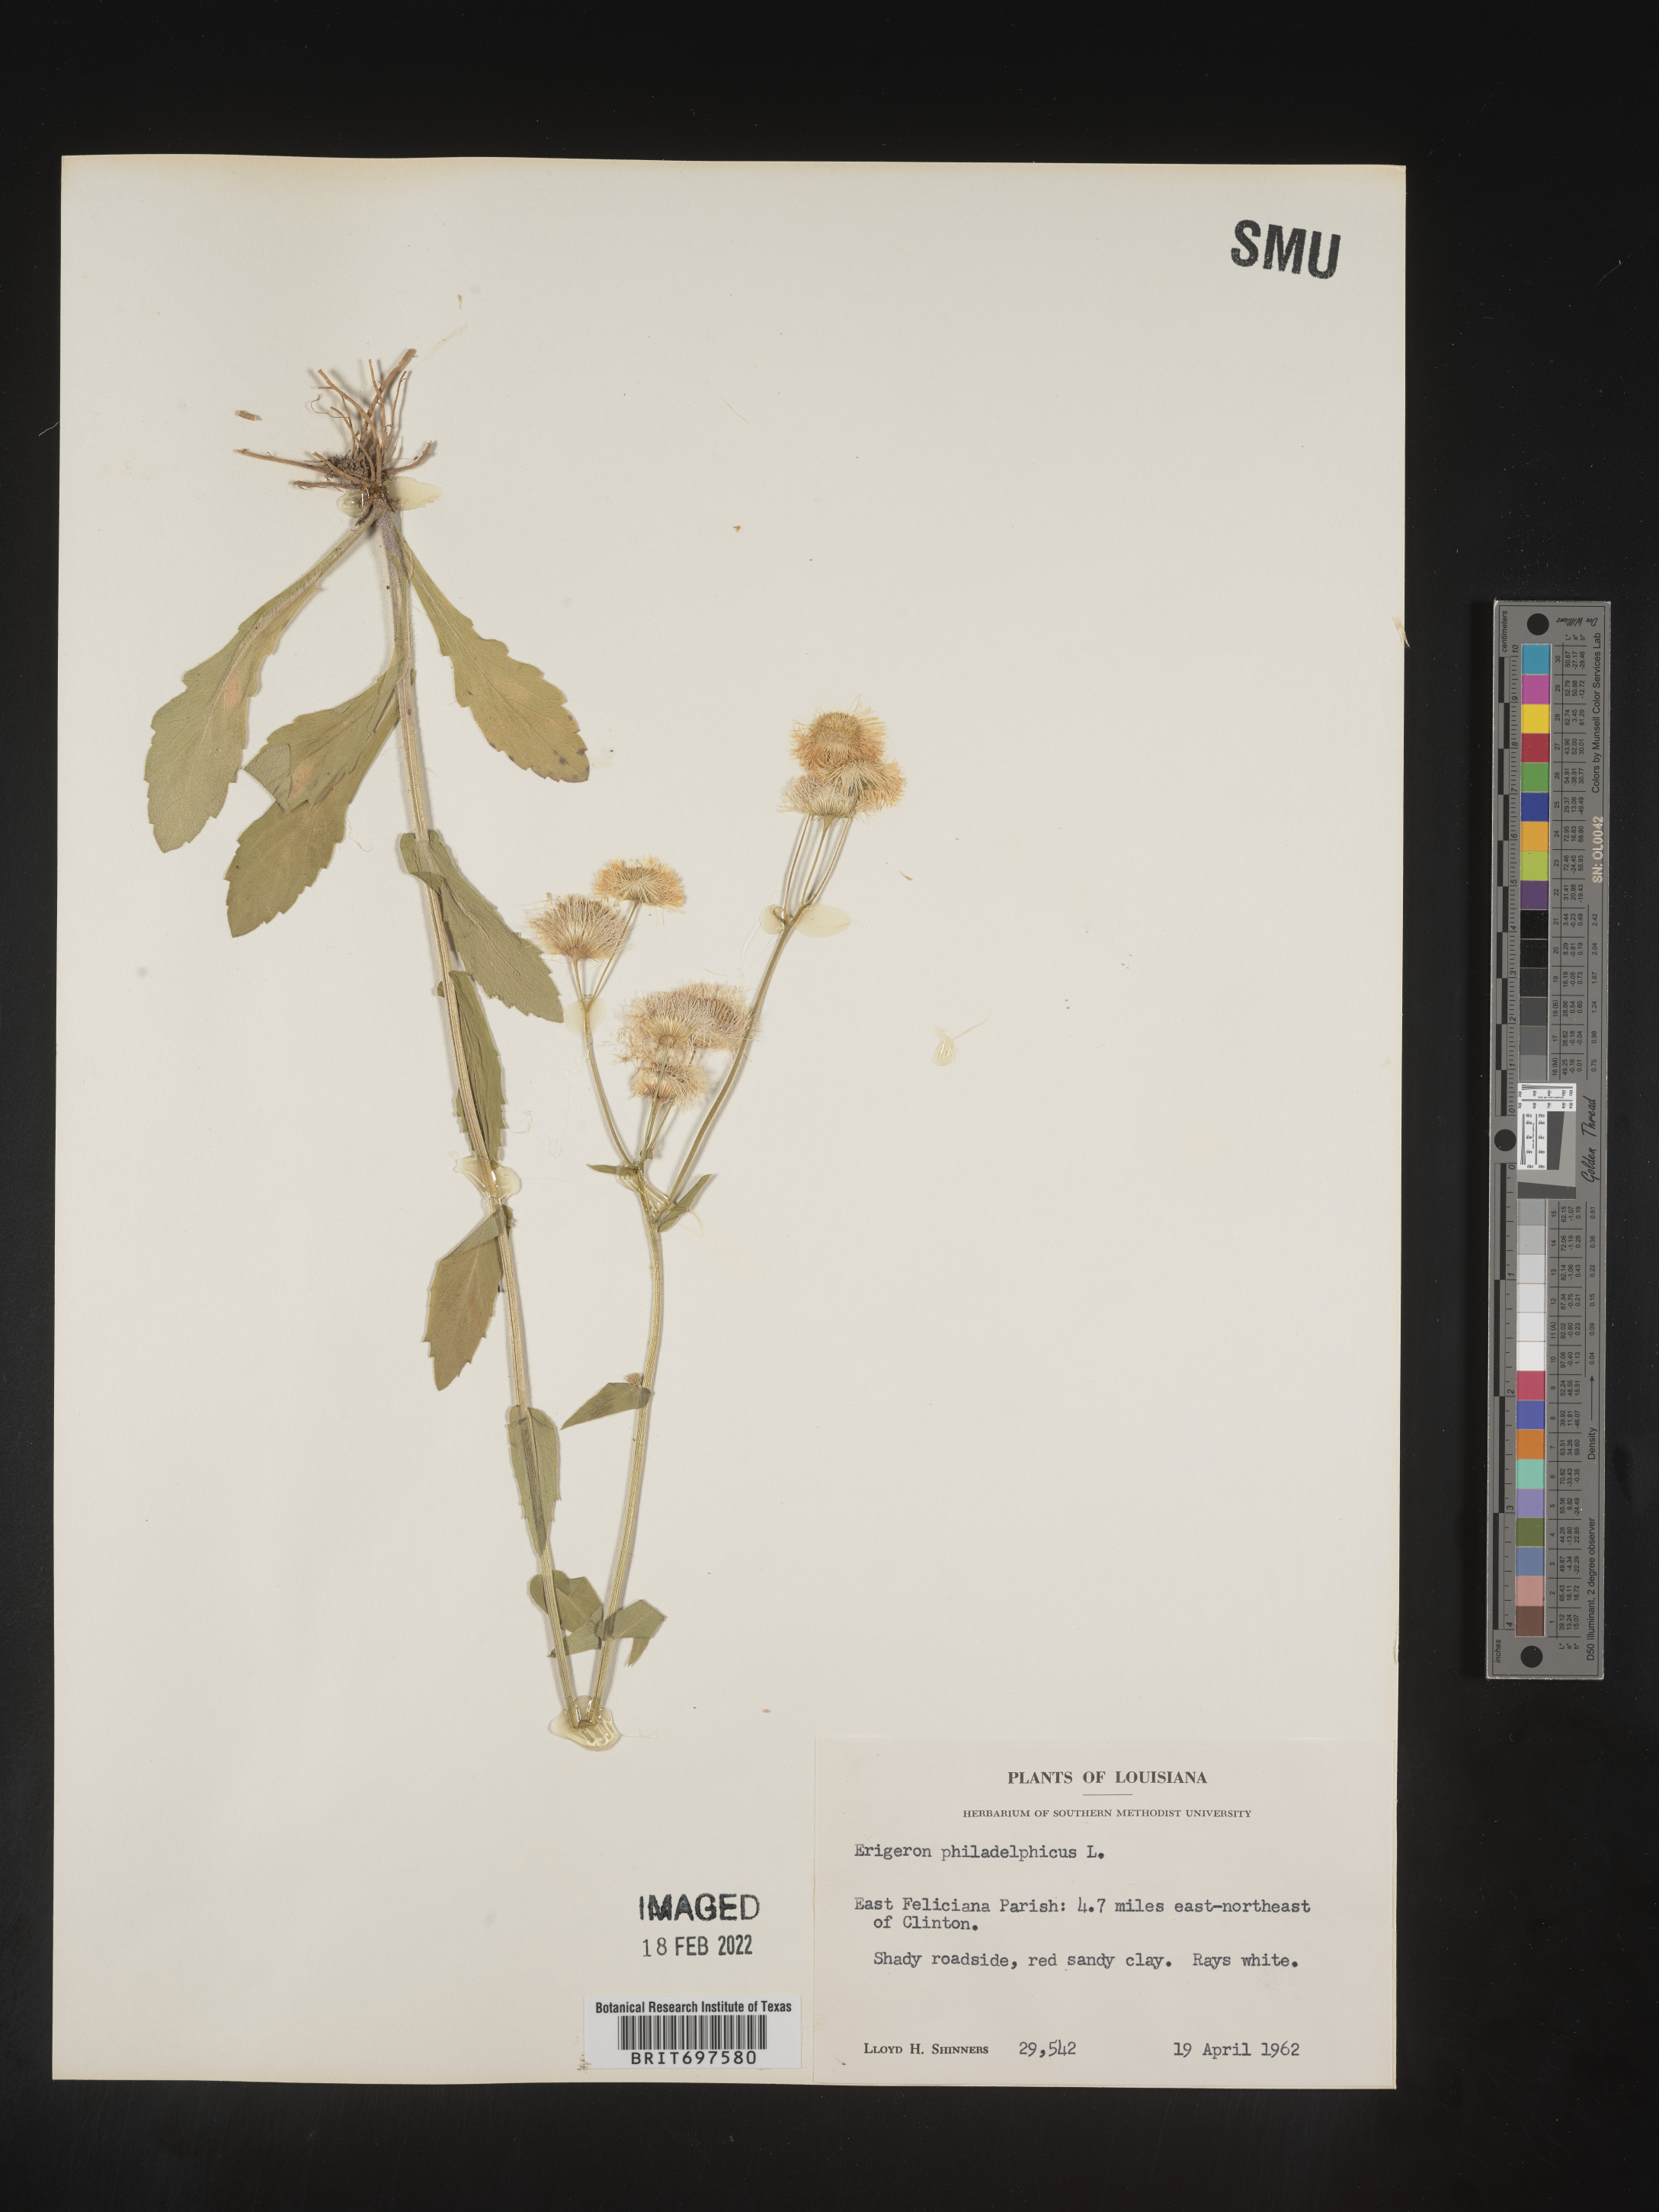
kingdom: Plantae
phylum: Tracheophyta
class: Magnoliopsida
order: Asterales
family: Asteraceae
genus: Erigeron
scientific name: Erigeron philadelphicus
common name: Robin's-plantain
